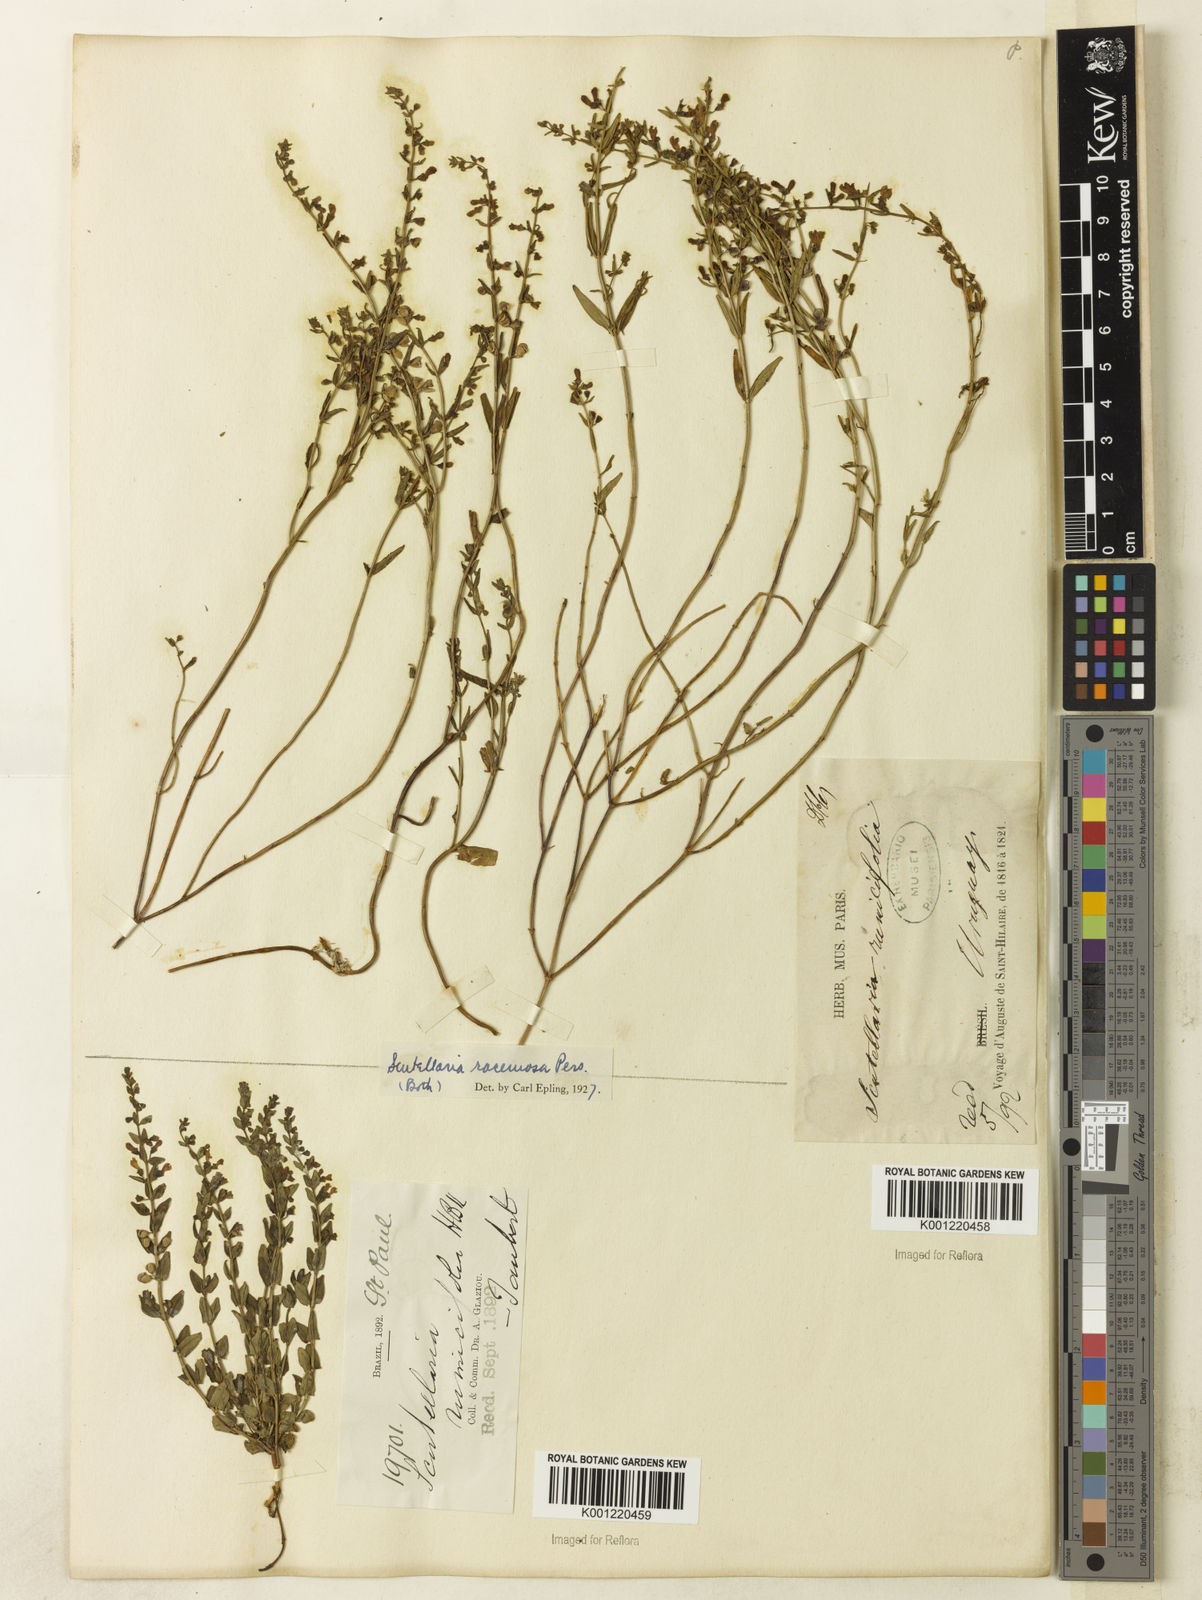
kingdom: Plantae
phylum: Tracheophyta
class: Magnoliopsida
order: Lamiales
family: Lamiaceae
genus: Scutellaria
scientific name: Scutellaria racemosa
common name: South american skullcap
